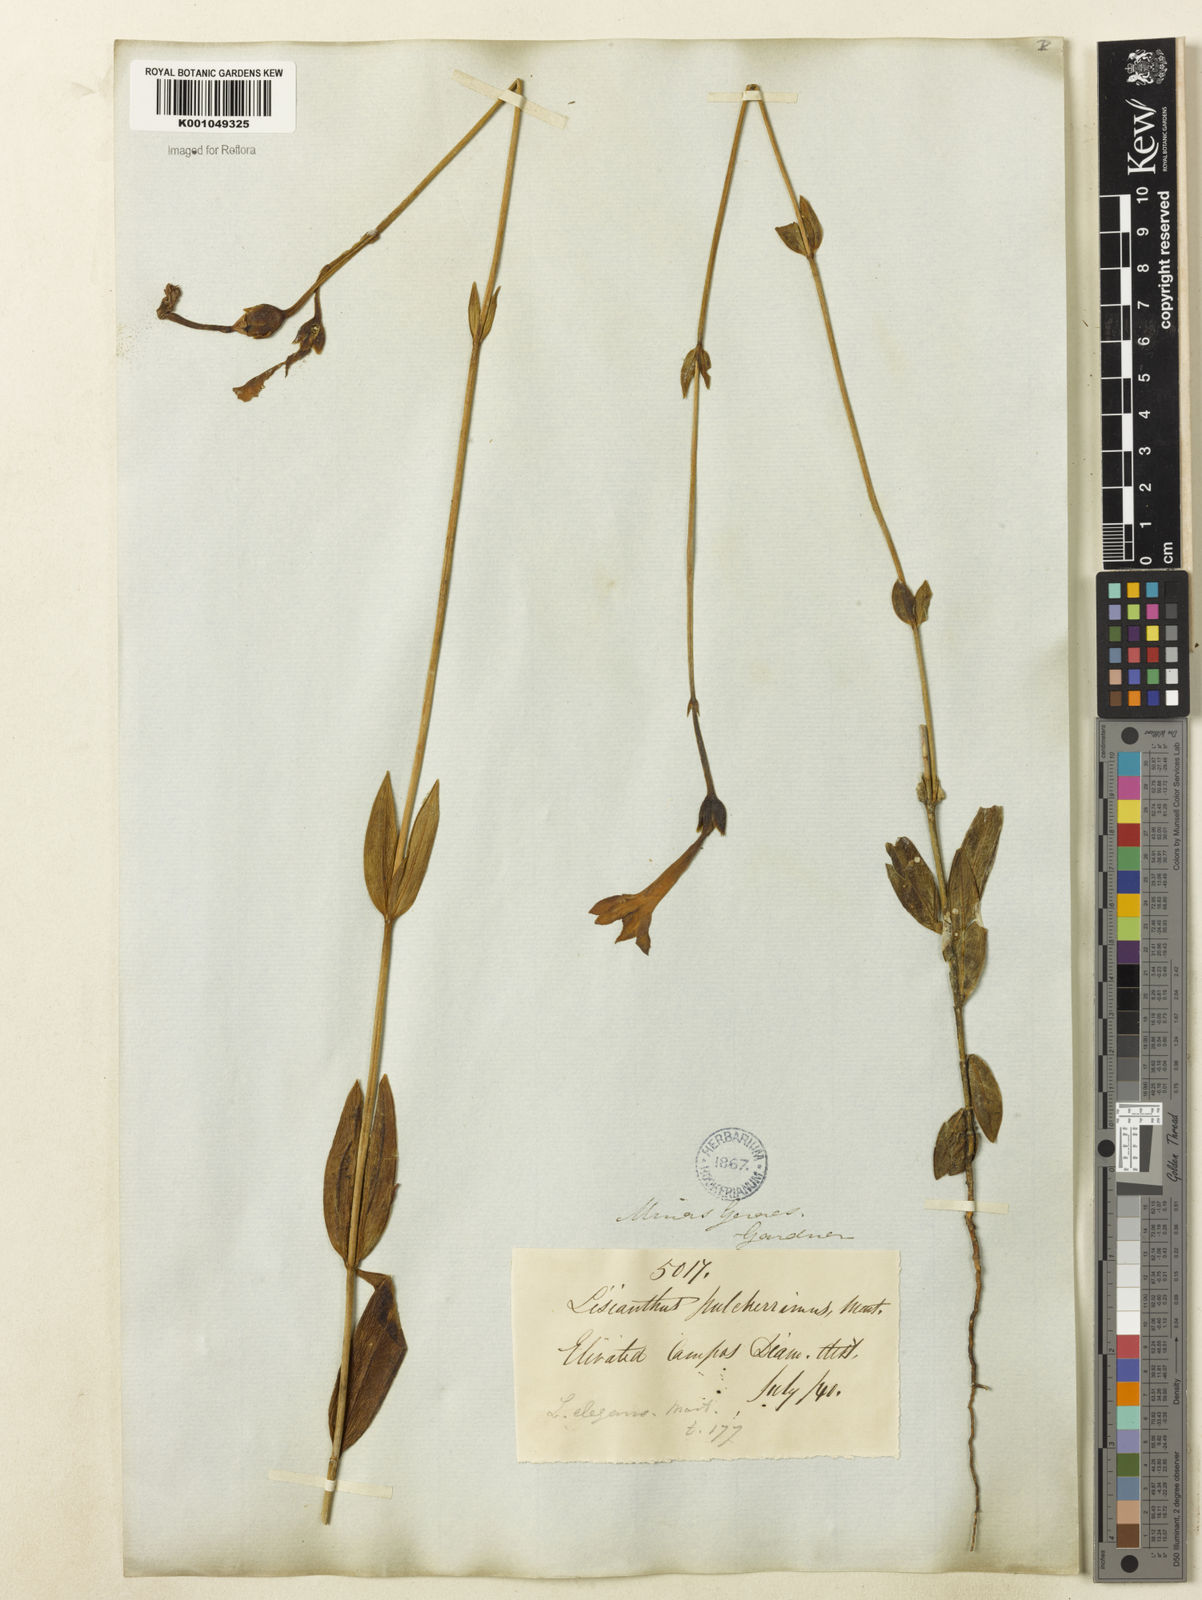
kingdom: Plantae
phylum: Tracheophyta
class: Magnoliopsida
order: Gentianales
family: Gentianaceae
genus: Calolisianthus
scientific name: Calolisianthus
